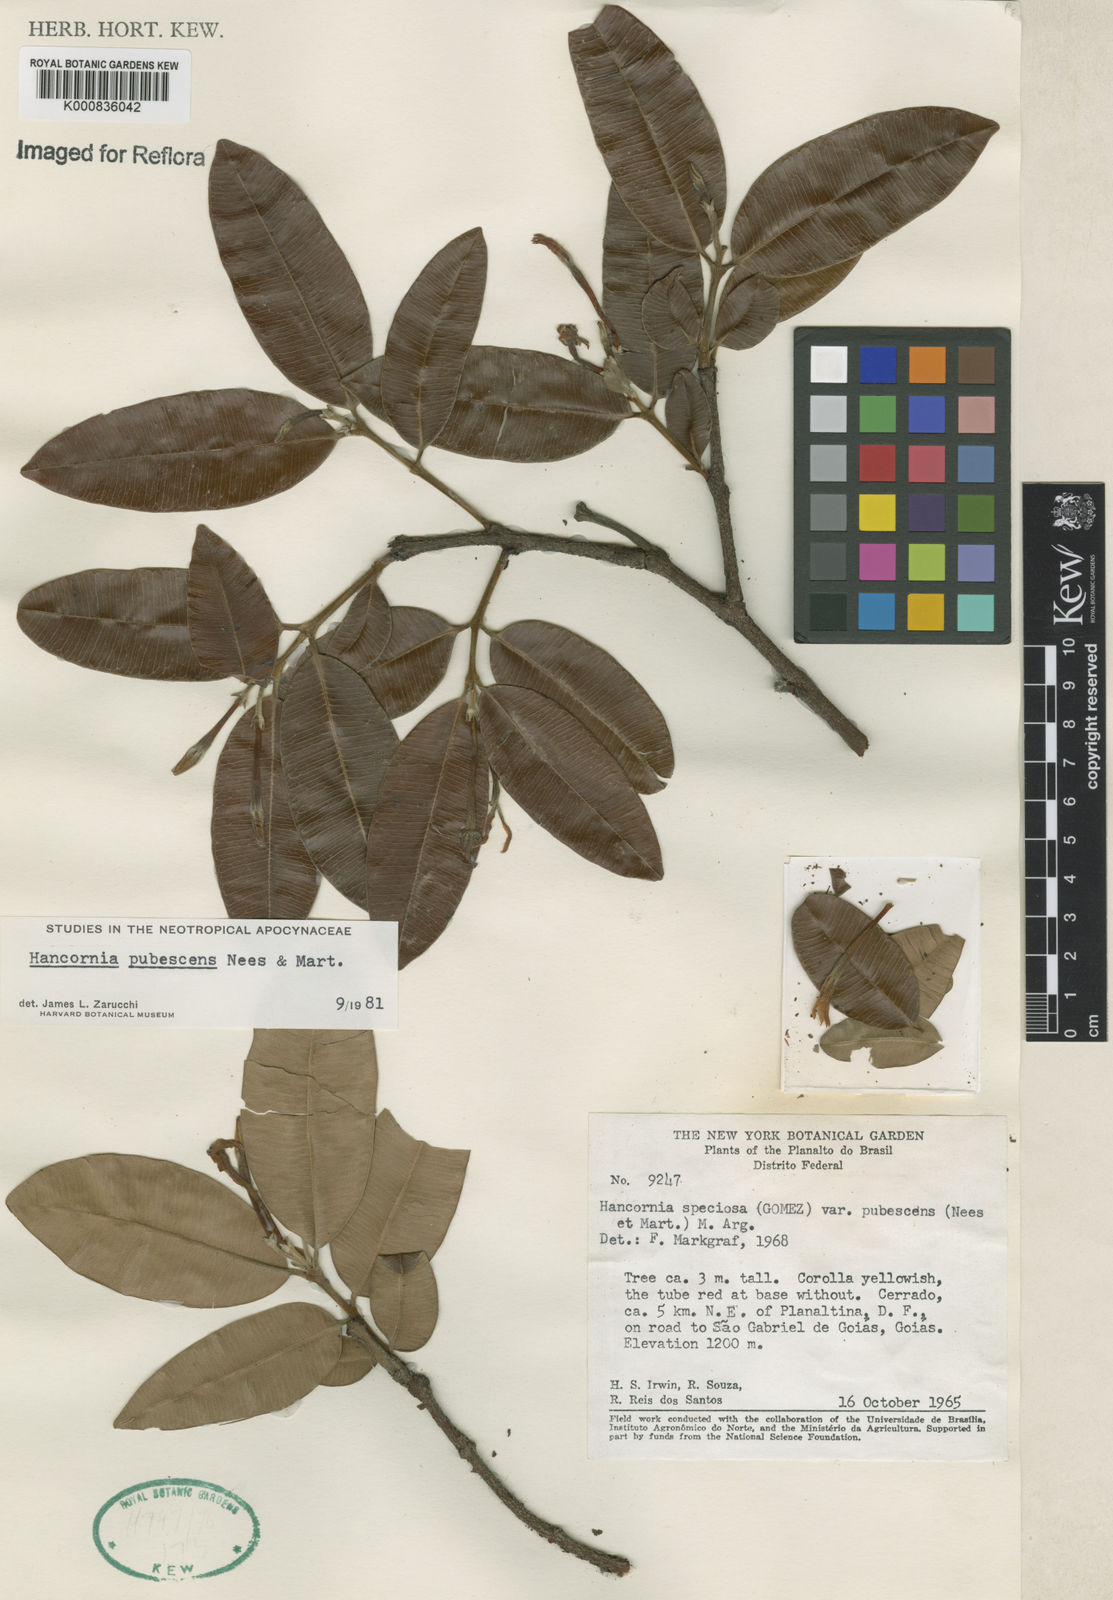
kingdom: Plantae
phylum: Tracheophyta
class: Magnoliopsida
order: Gentianales
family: Apocynaceae
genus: Hancornia
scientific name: Hancornia speciosa
